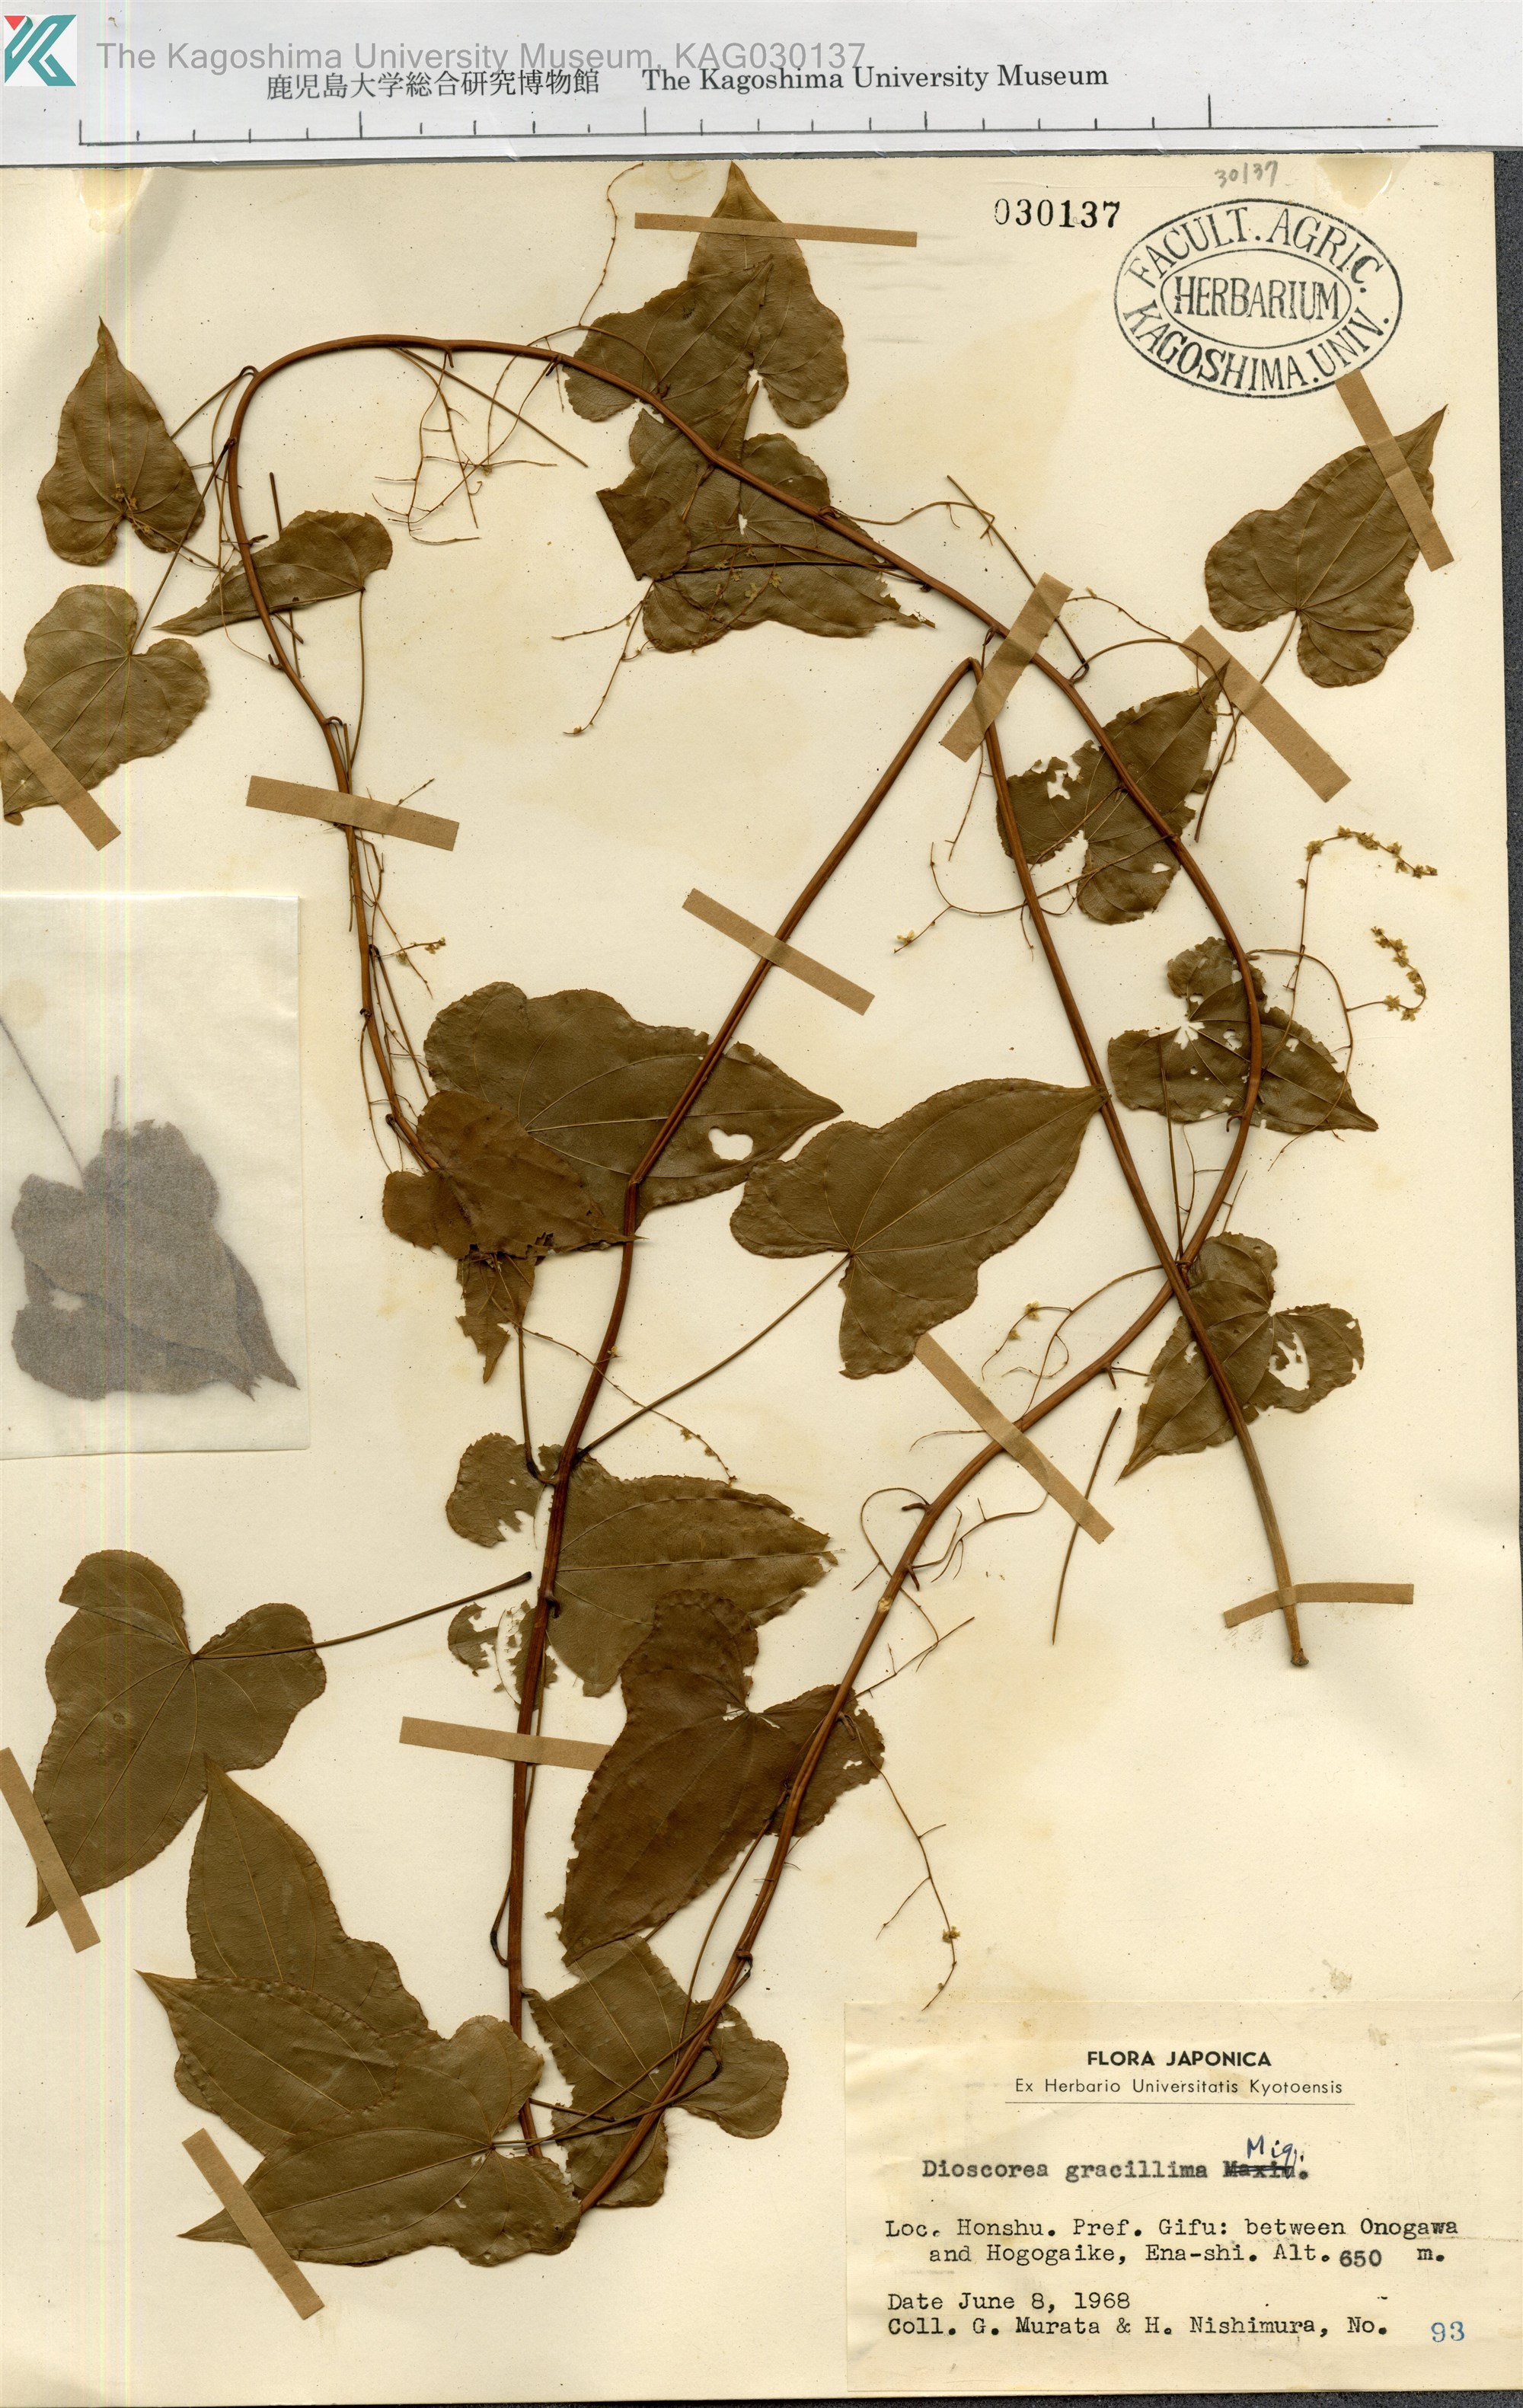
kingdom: Plantae
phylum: Tracheophyta
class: Liliopsida
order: Dioscoreales
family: Dioscoreaceae
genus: Dioscorea
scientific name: Dioscorea gracillima
